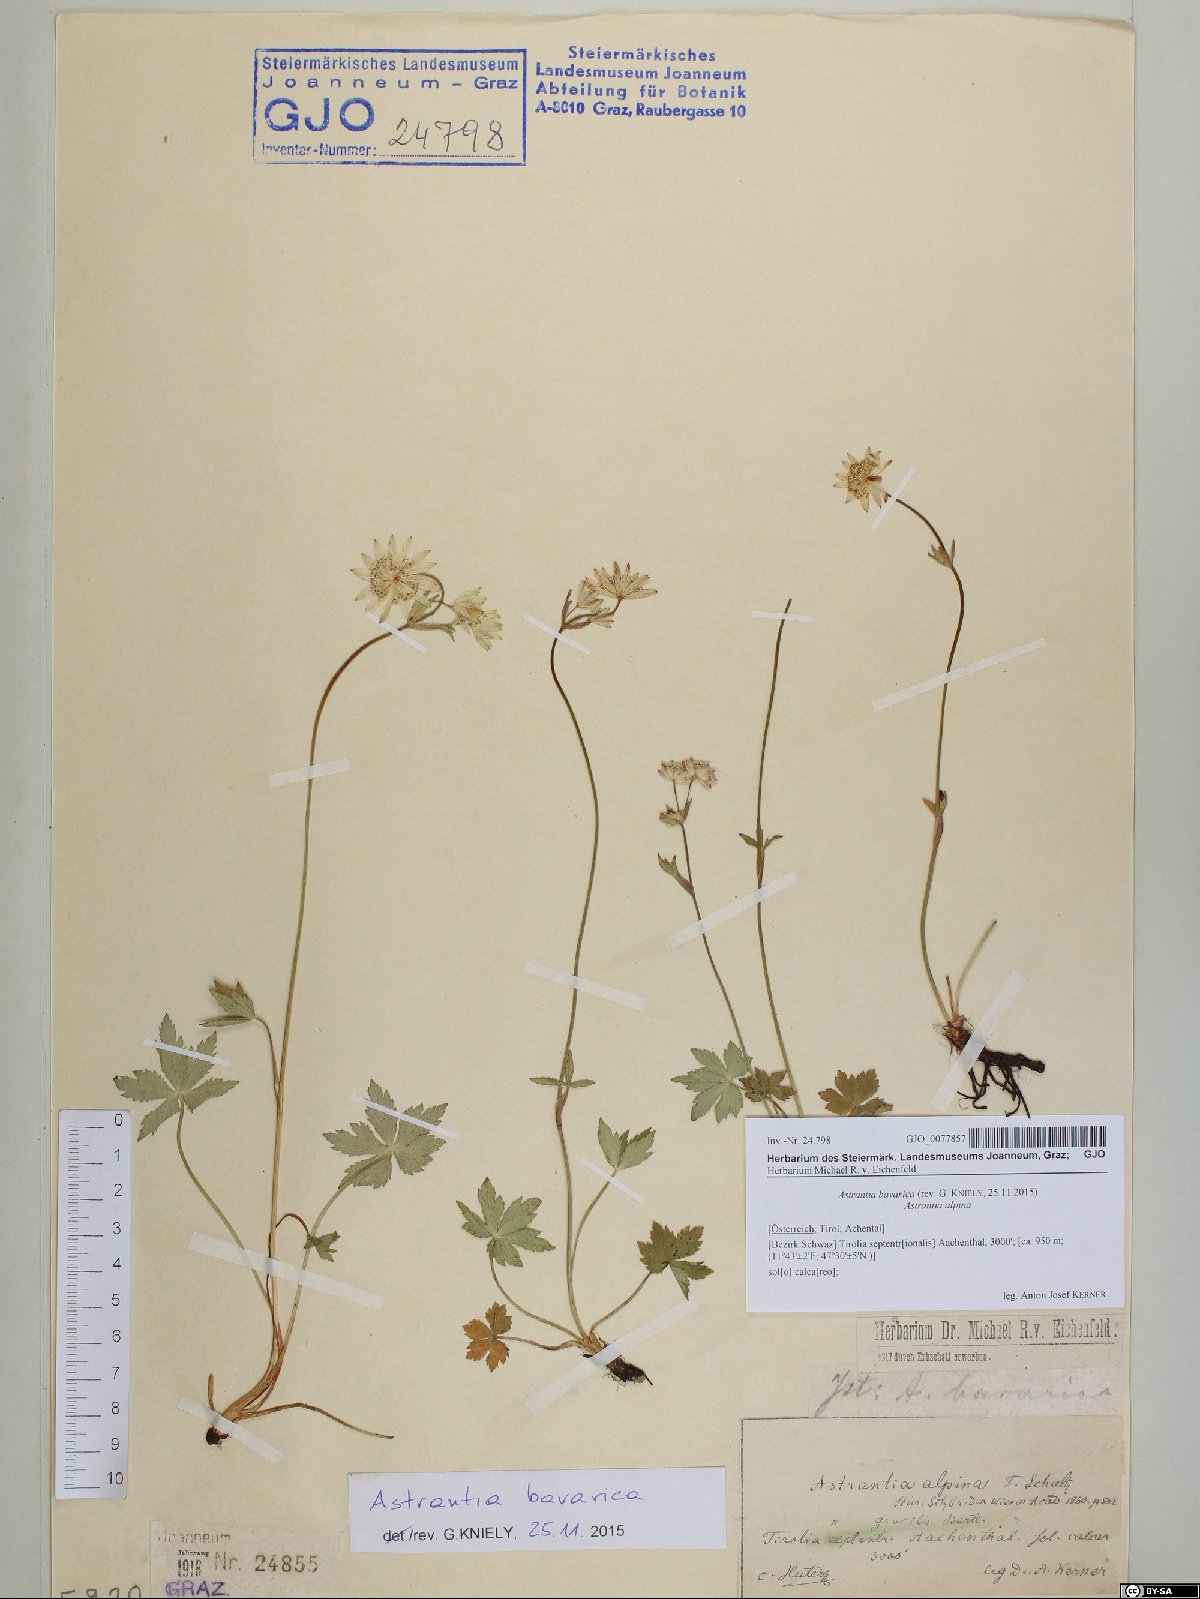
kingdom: Plantae
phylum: Tracheophyta
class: Magnoliopsida
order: Apiales
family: Apiaceae
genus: Astrantia
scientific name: Astrantia bavarica
